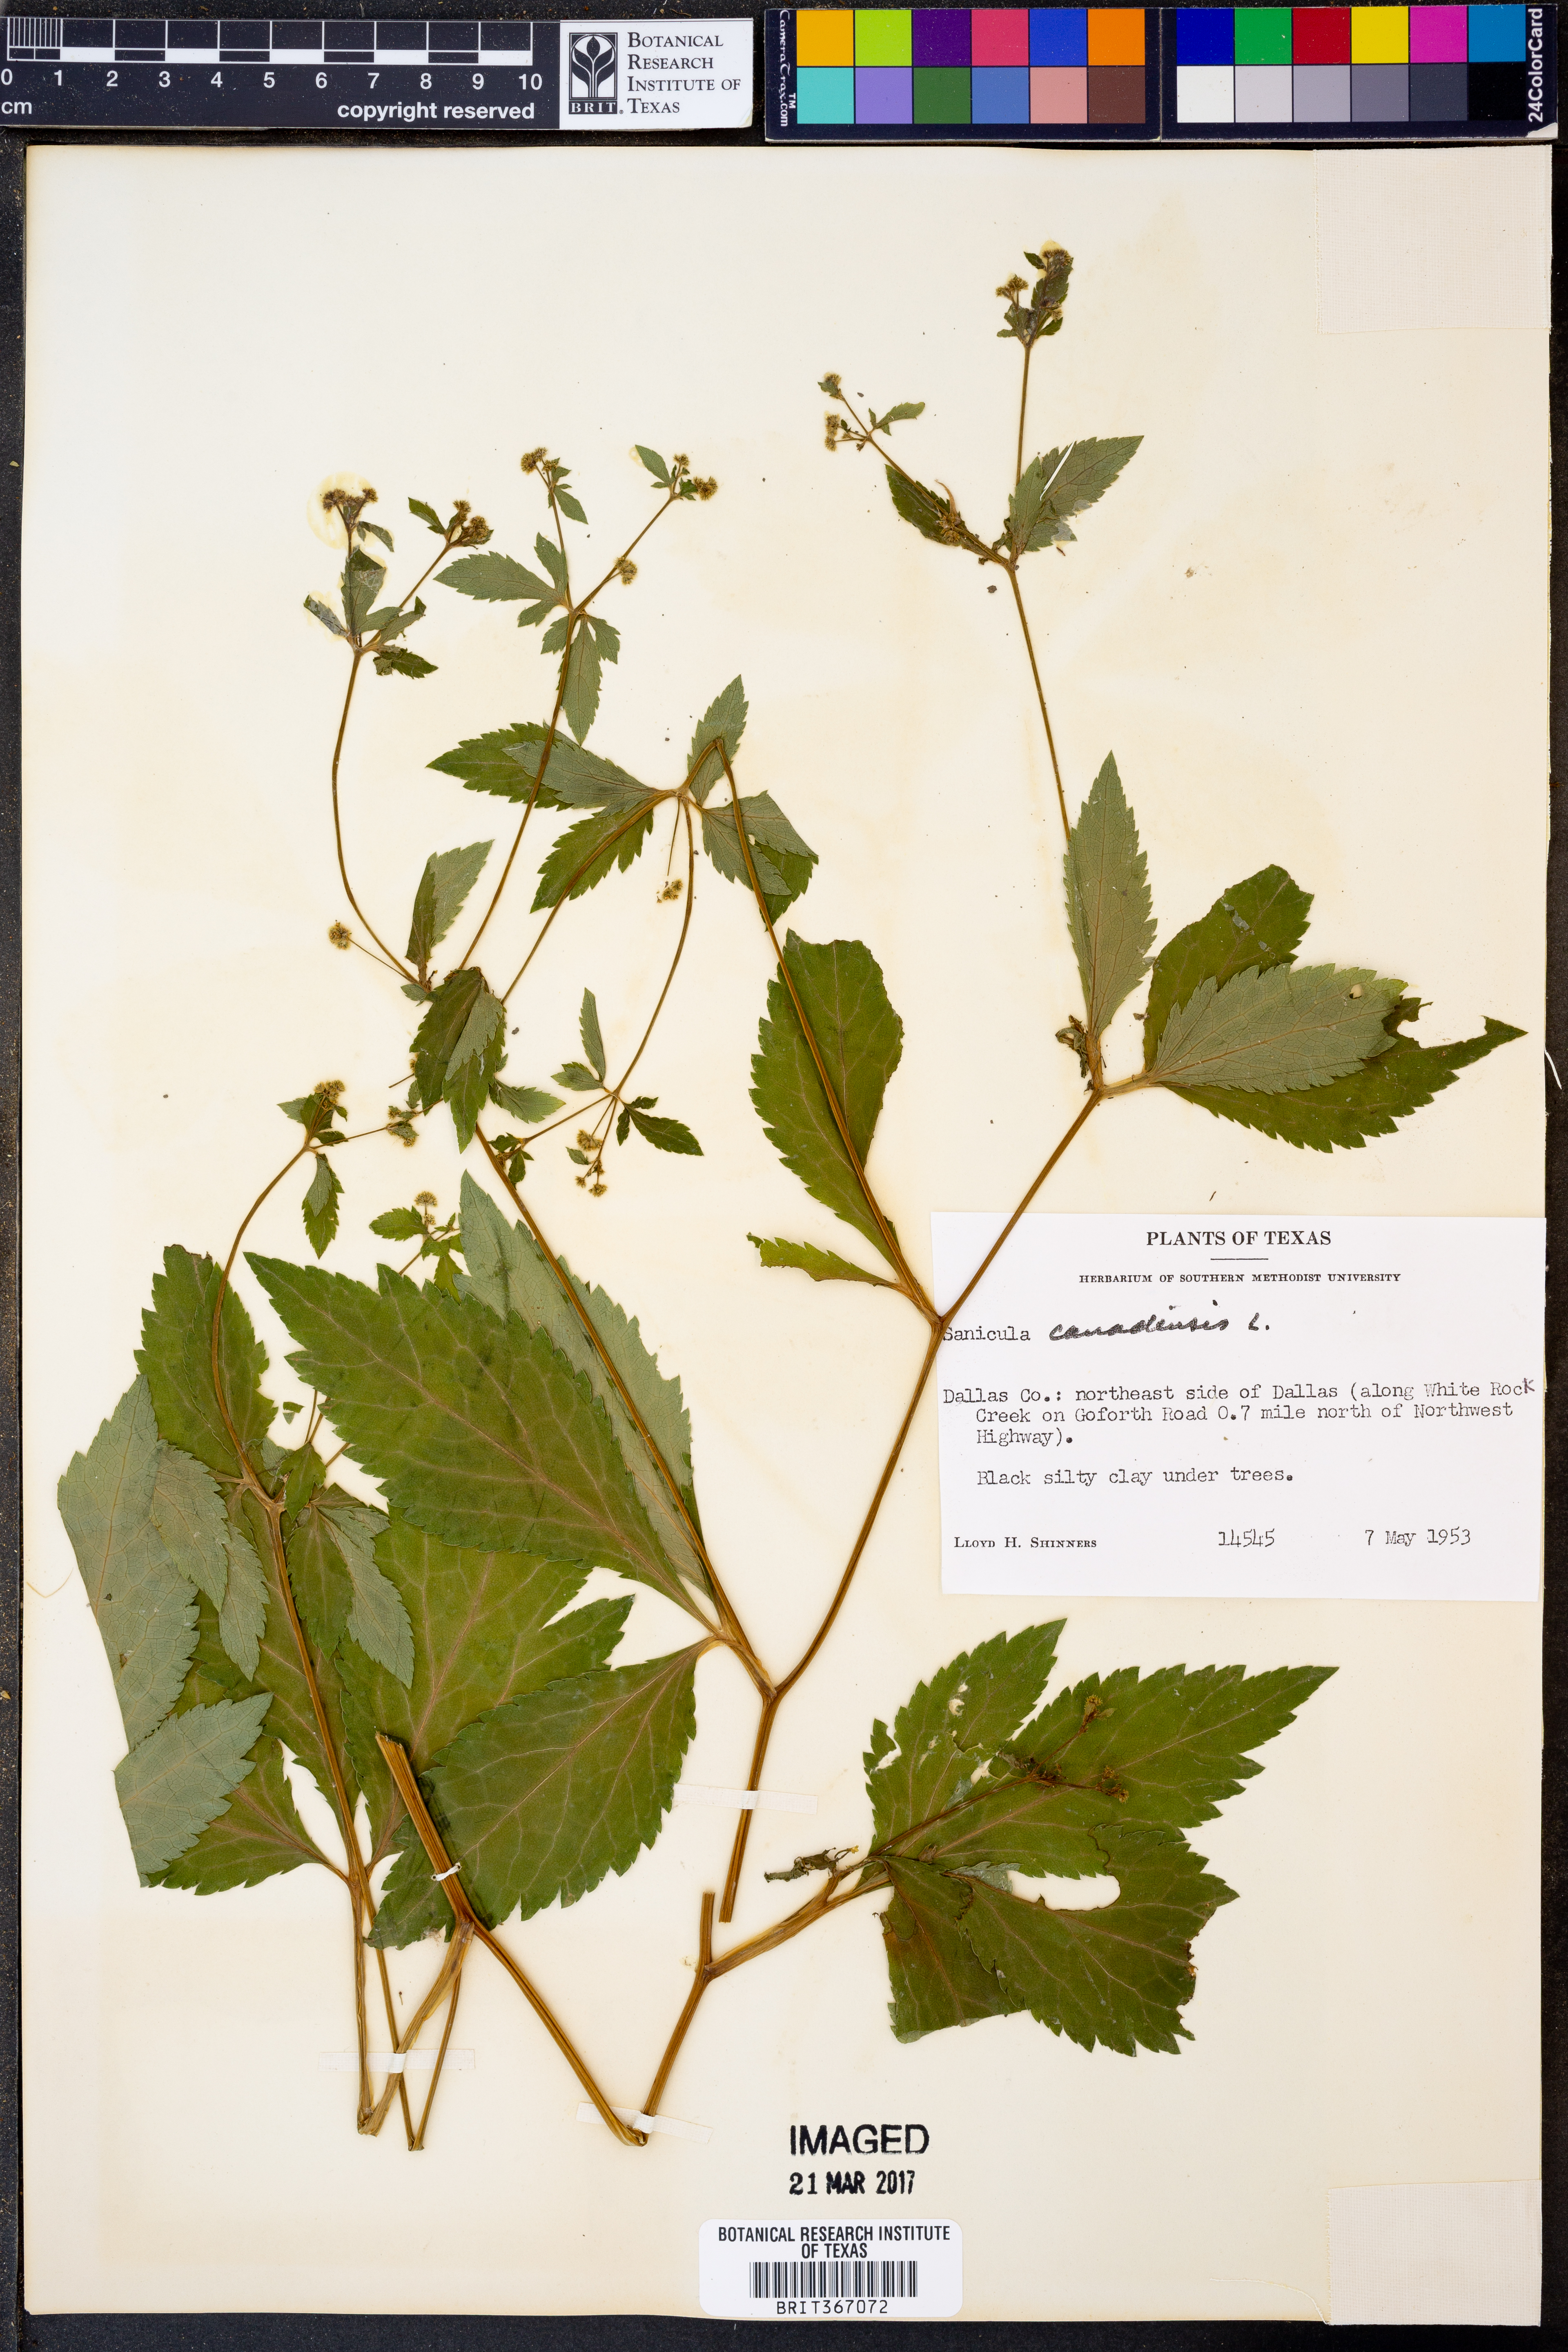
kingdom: Plantae
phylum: Tracheophyta
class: Magnoliopsida
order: Apiales
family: Apiaceae
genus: Sanicula
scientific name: Sanicula canadensis
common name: Canada sanicle
